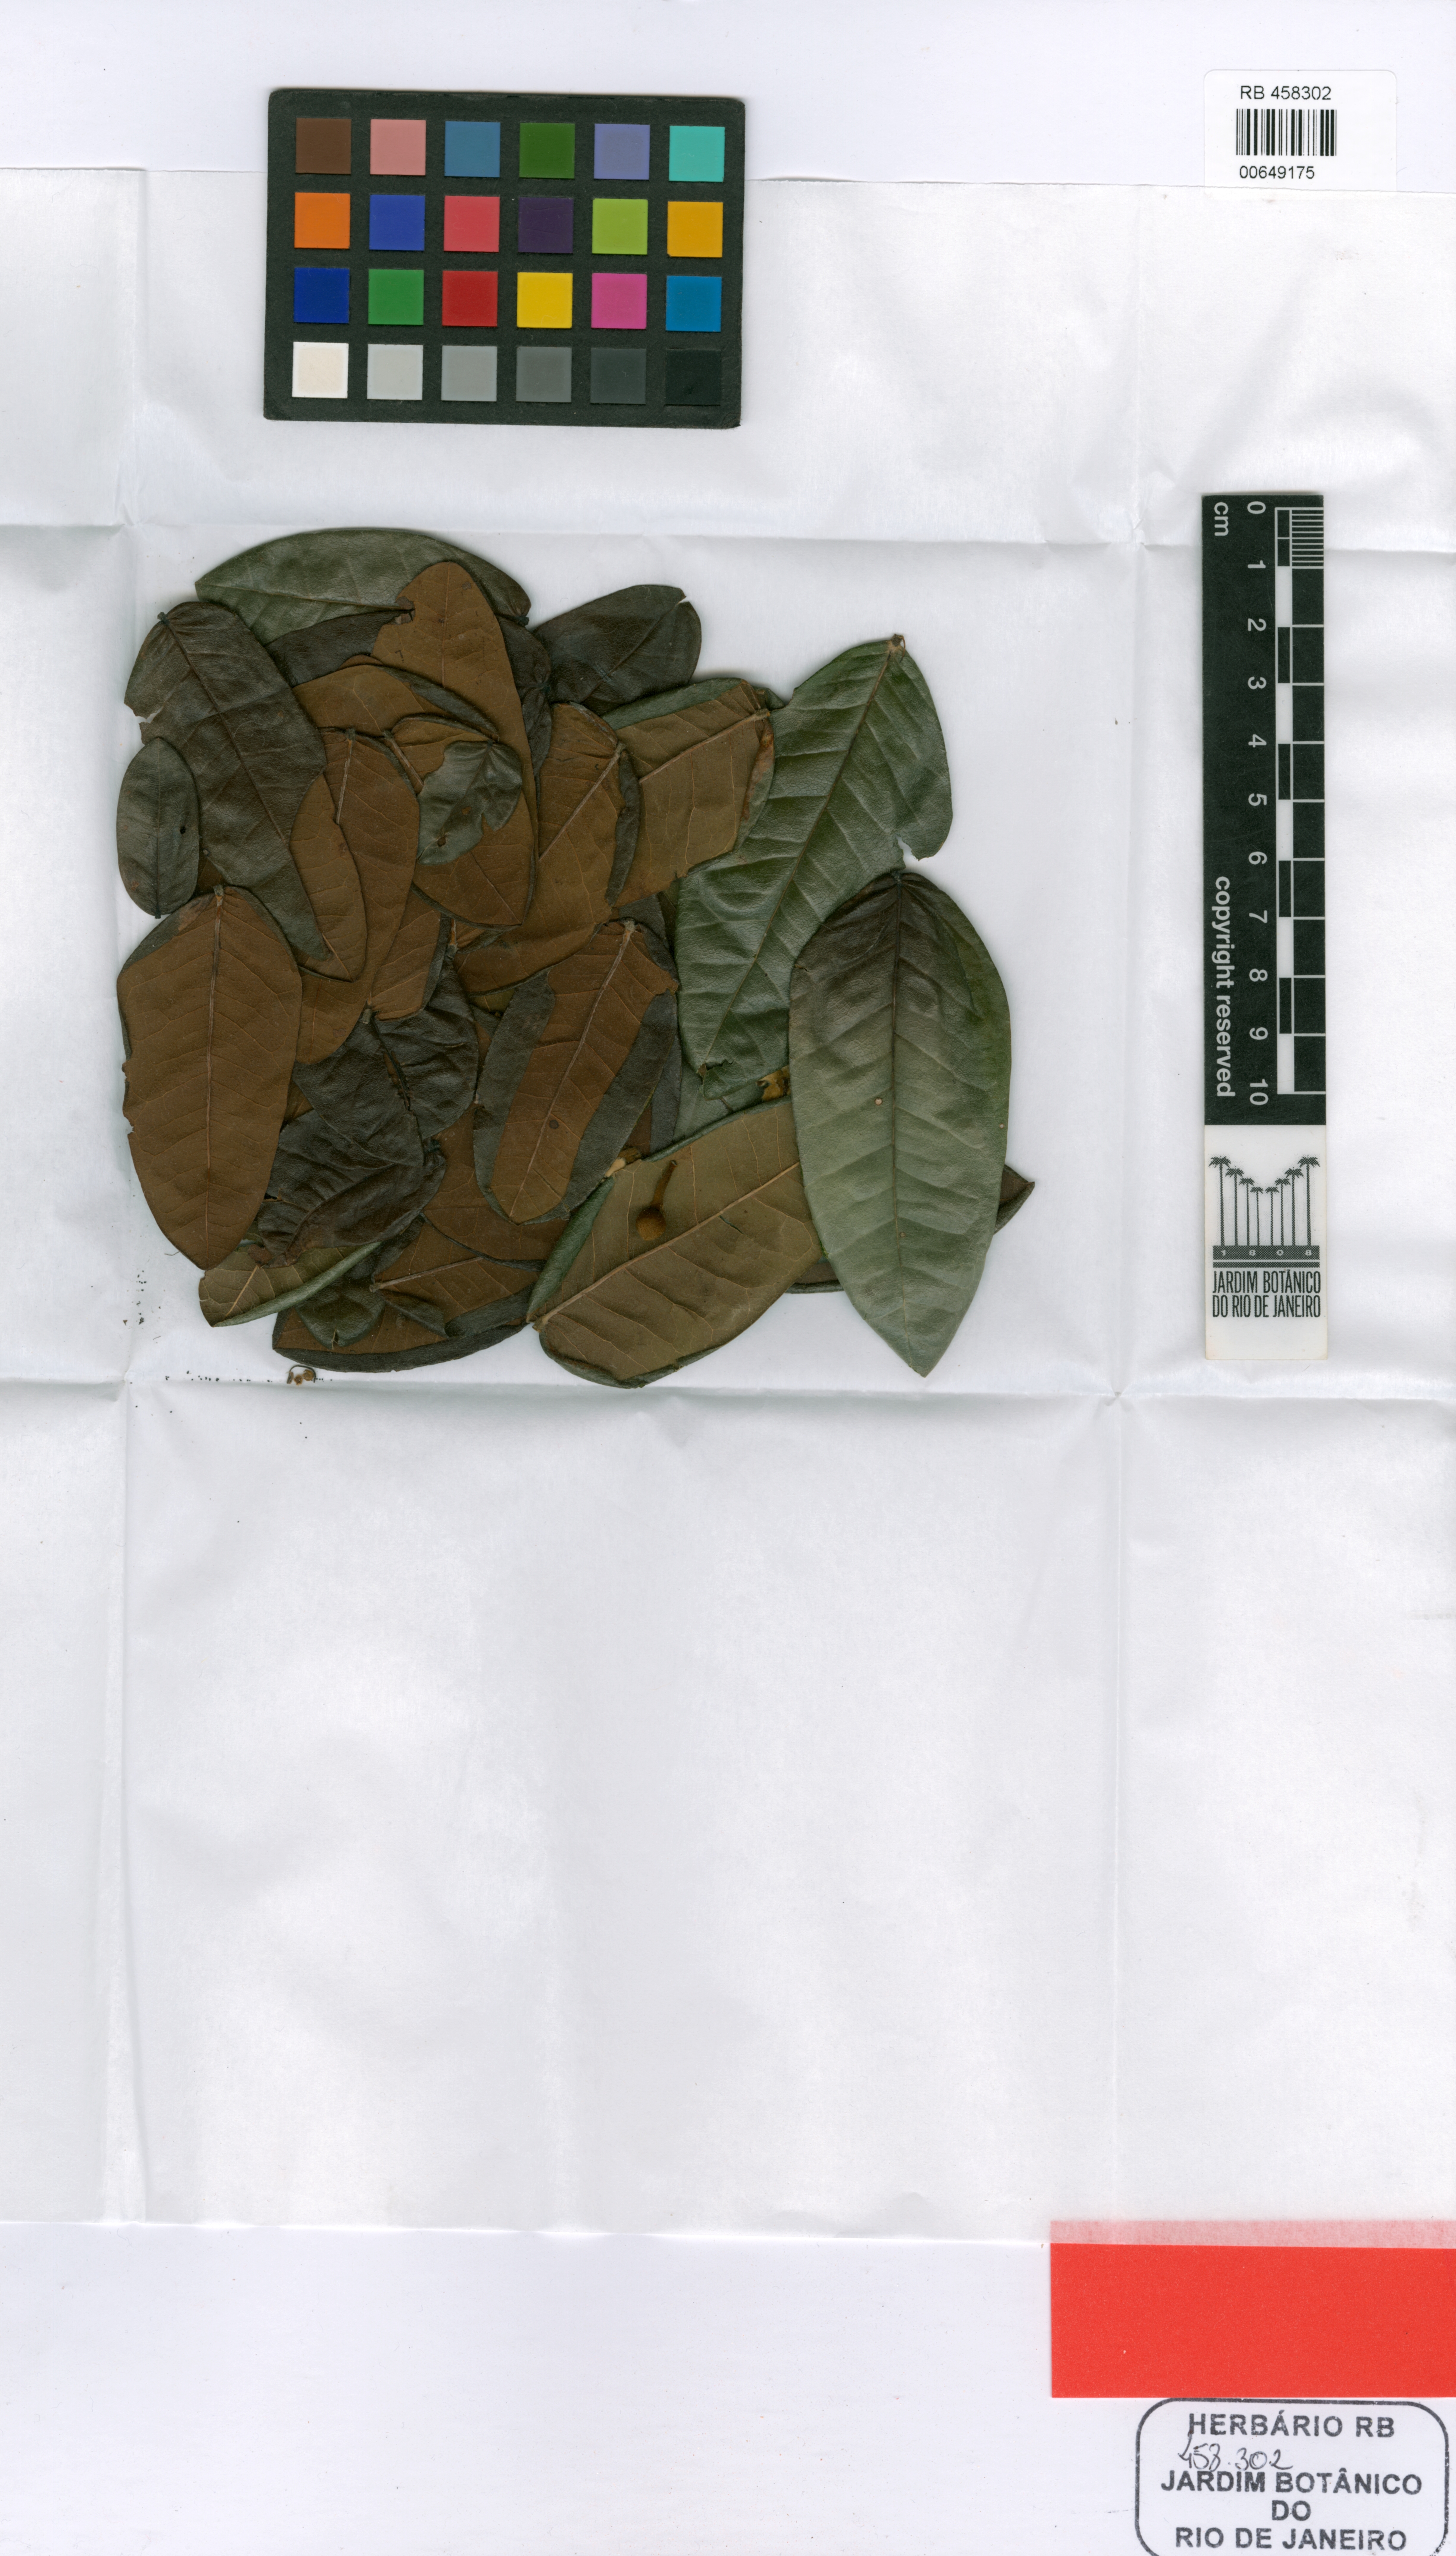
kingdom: Plantae
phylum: Tracheophyta
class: Magnoliopsida
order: Fabales
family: Fabaceae
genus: Swartzia
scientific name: Swartzia arenophila
